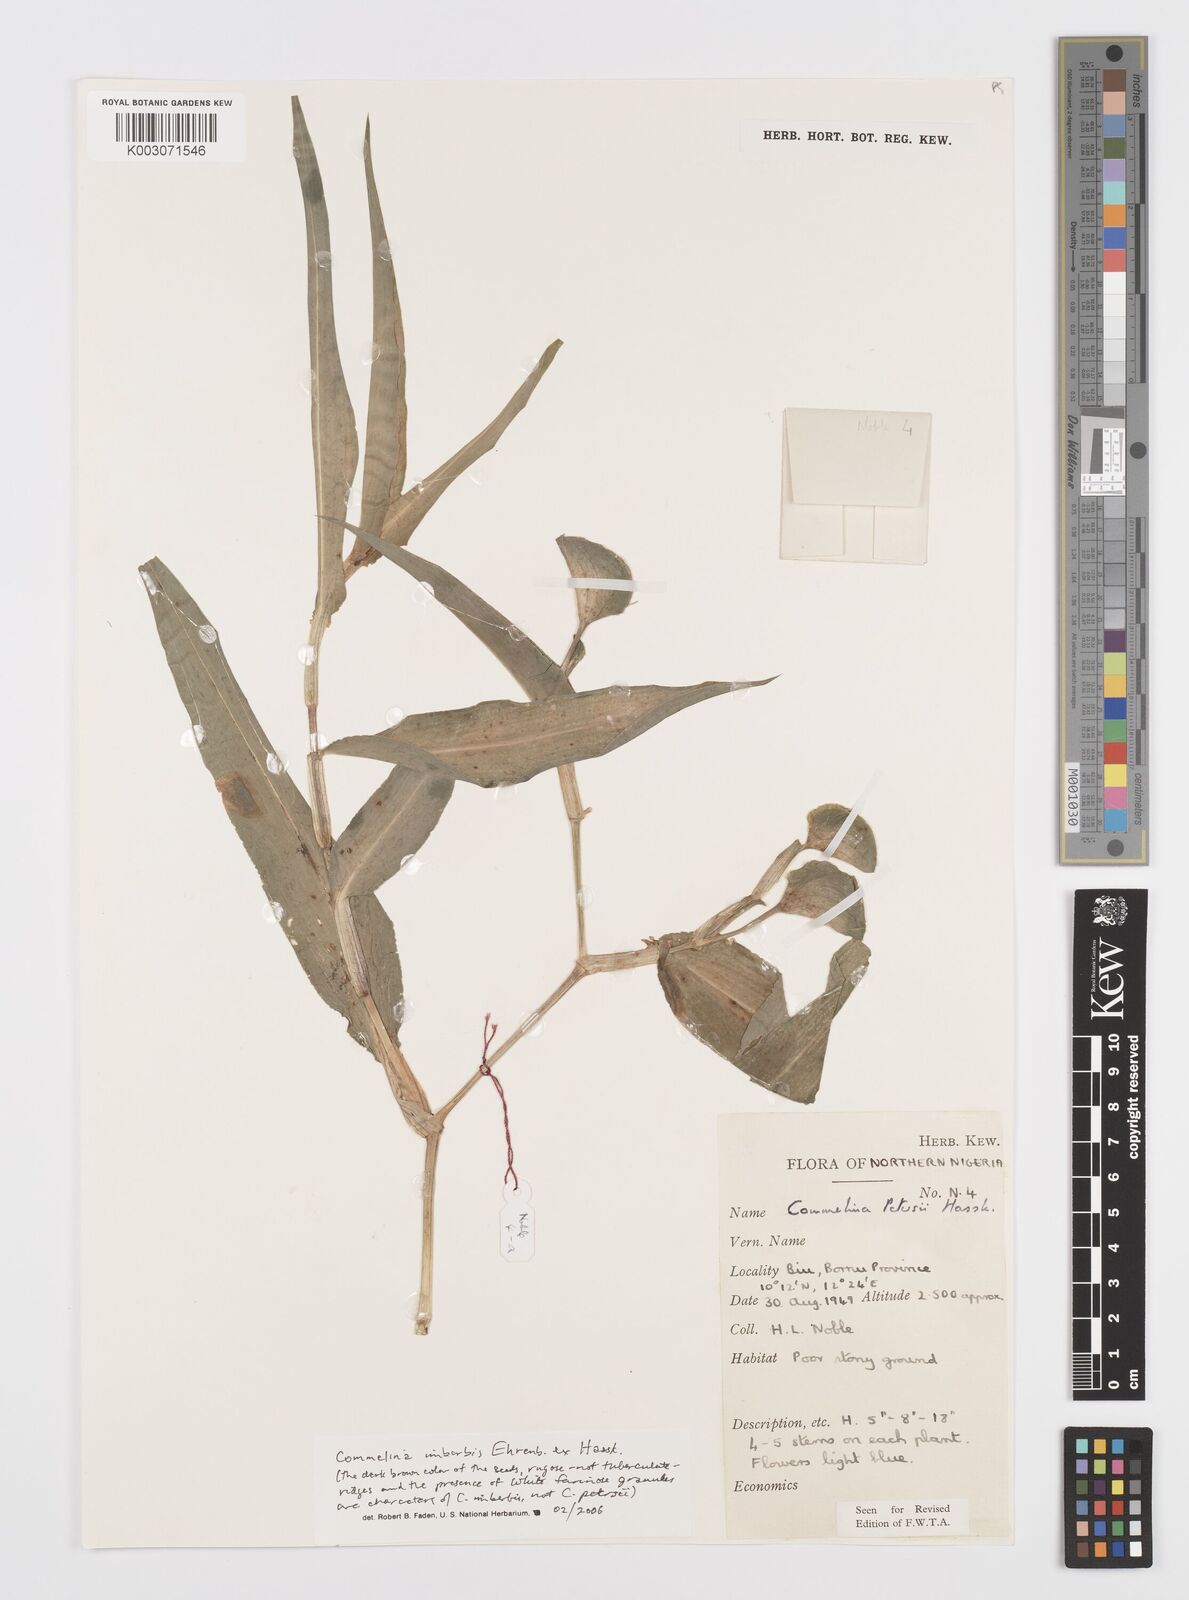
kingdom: Plantae
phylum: Tracheophyta
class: Liliopsida
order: Commelinales
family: Commelinaceae
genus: Commelina
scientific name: Commelina petersii
